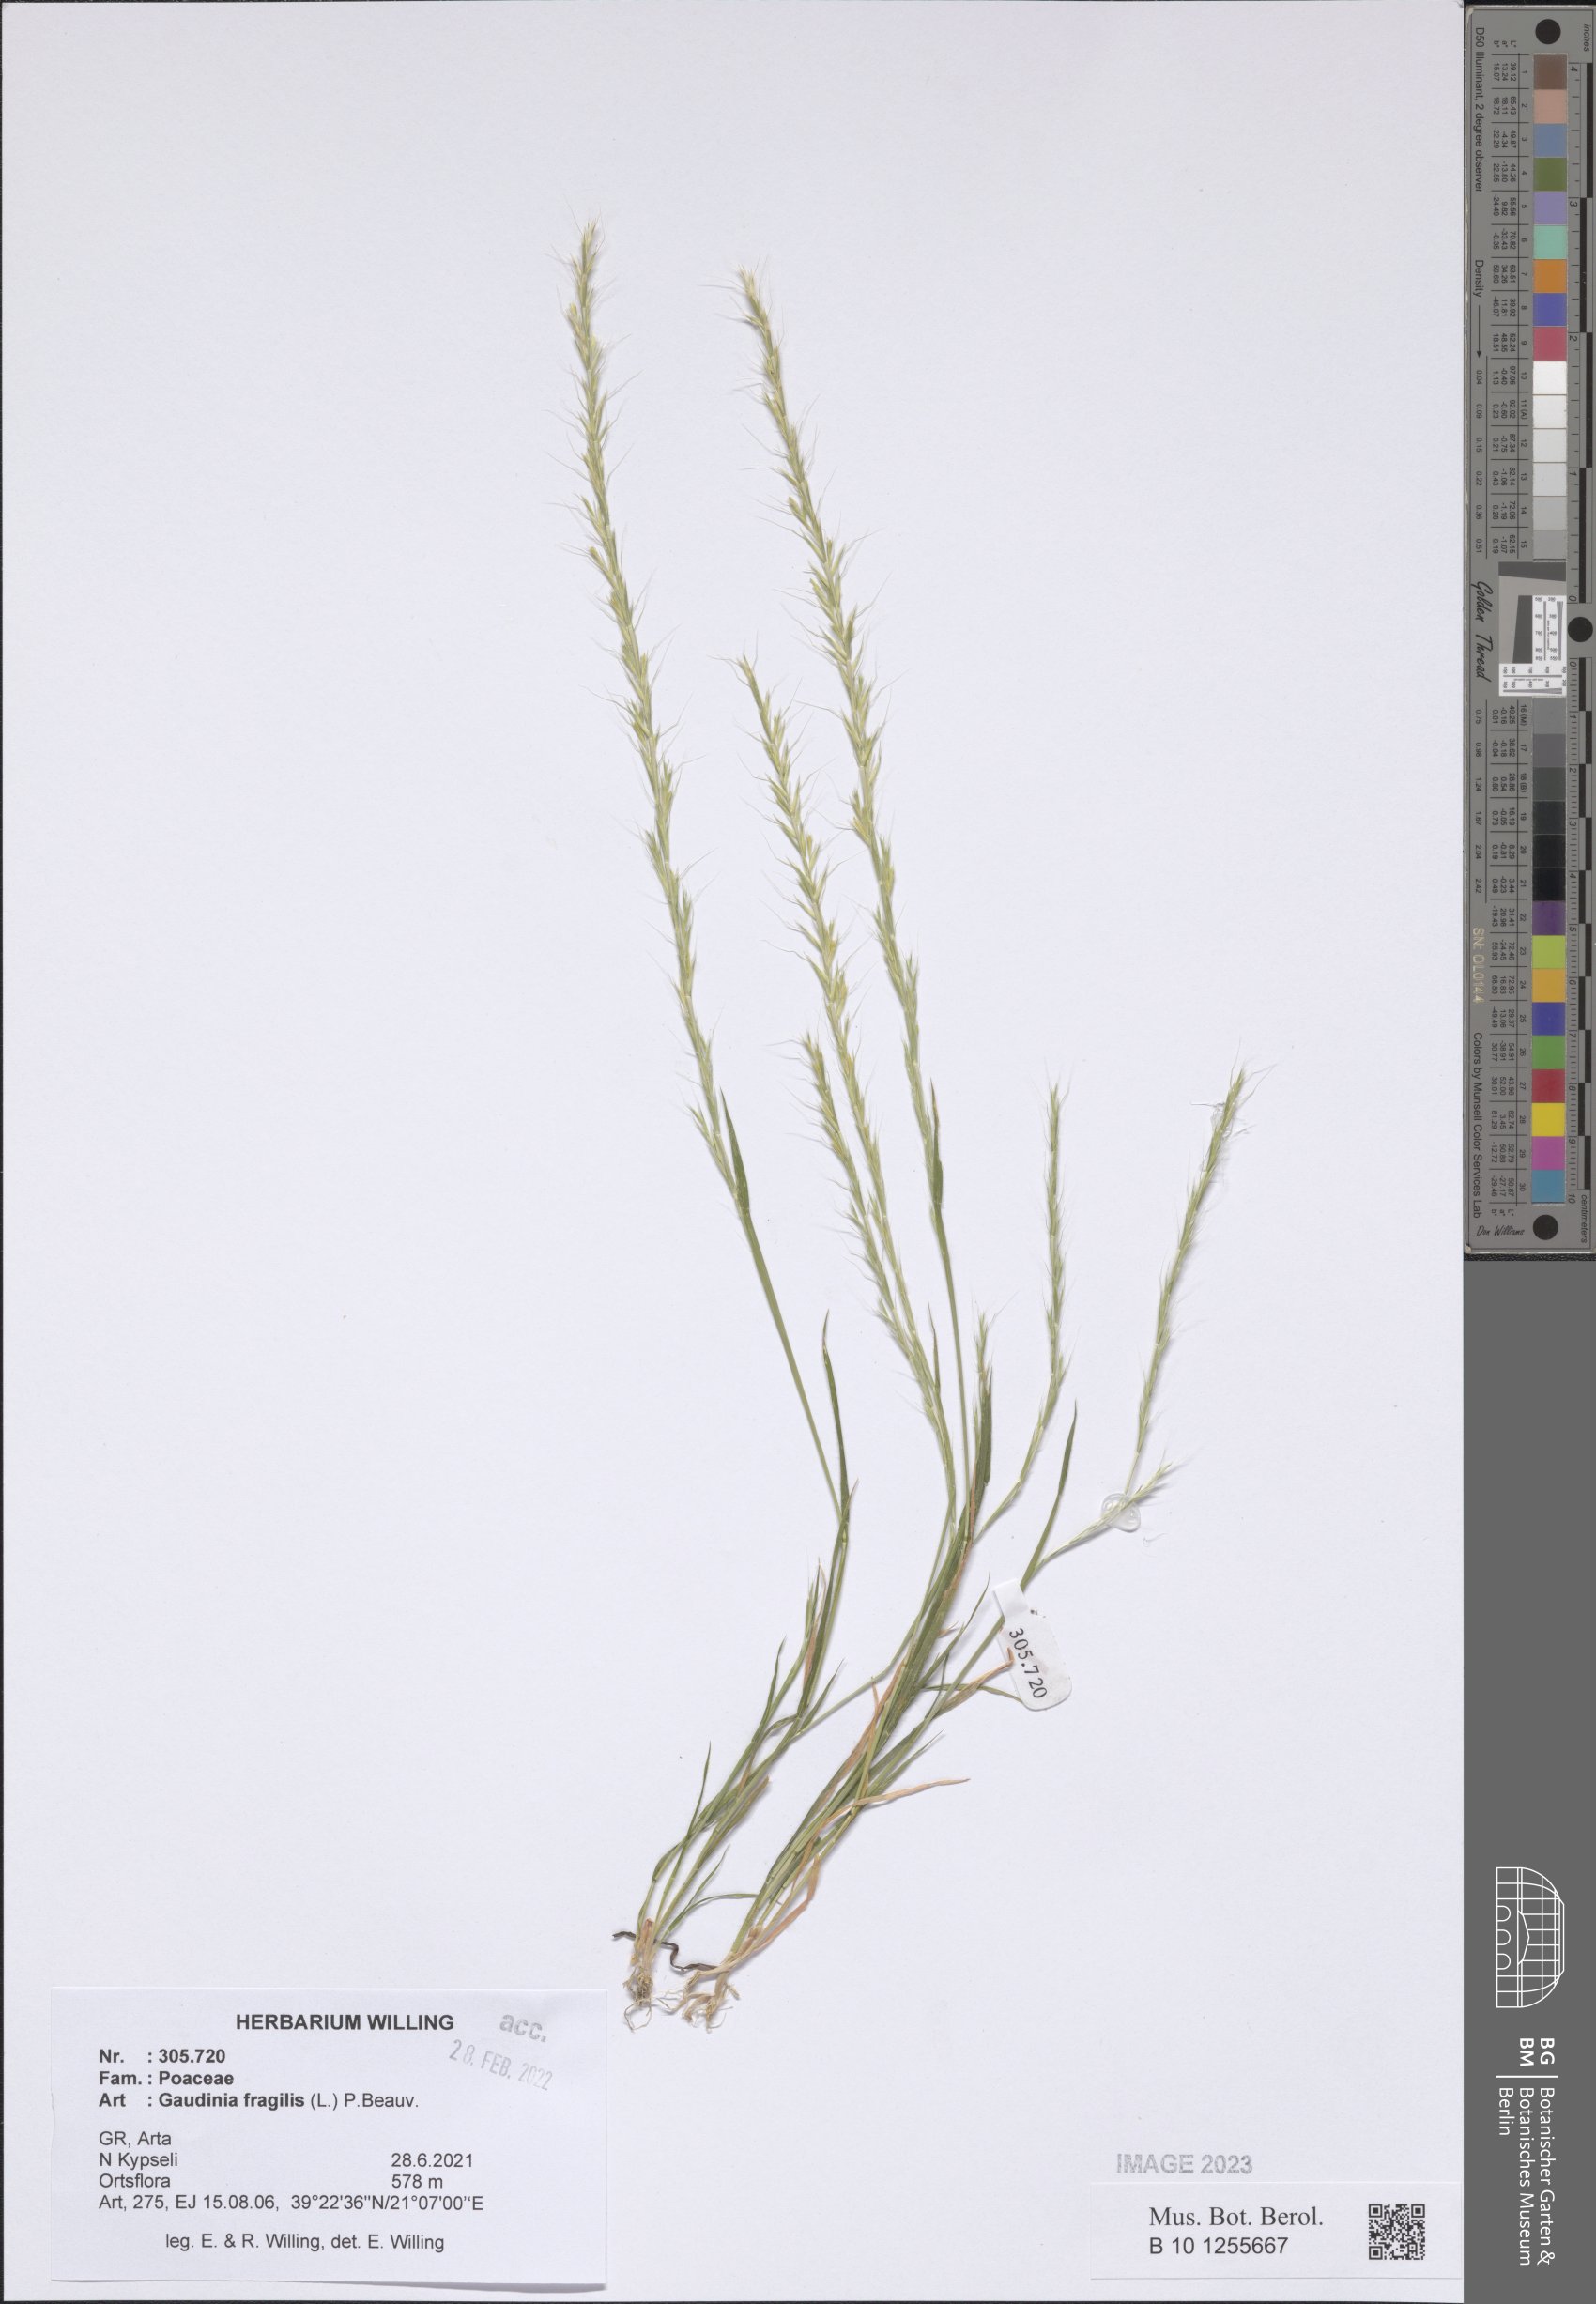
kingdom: Plantae
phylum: Tracheophyta
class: Liliopsida
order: Poales
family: Poaceae
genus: Gaudinia
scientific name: Gaudinia fragilis
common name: French oat-grass
